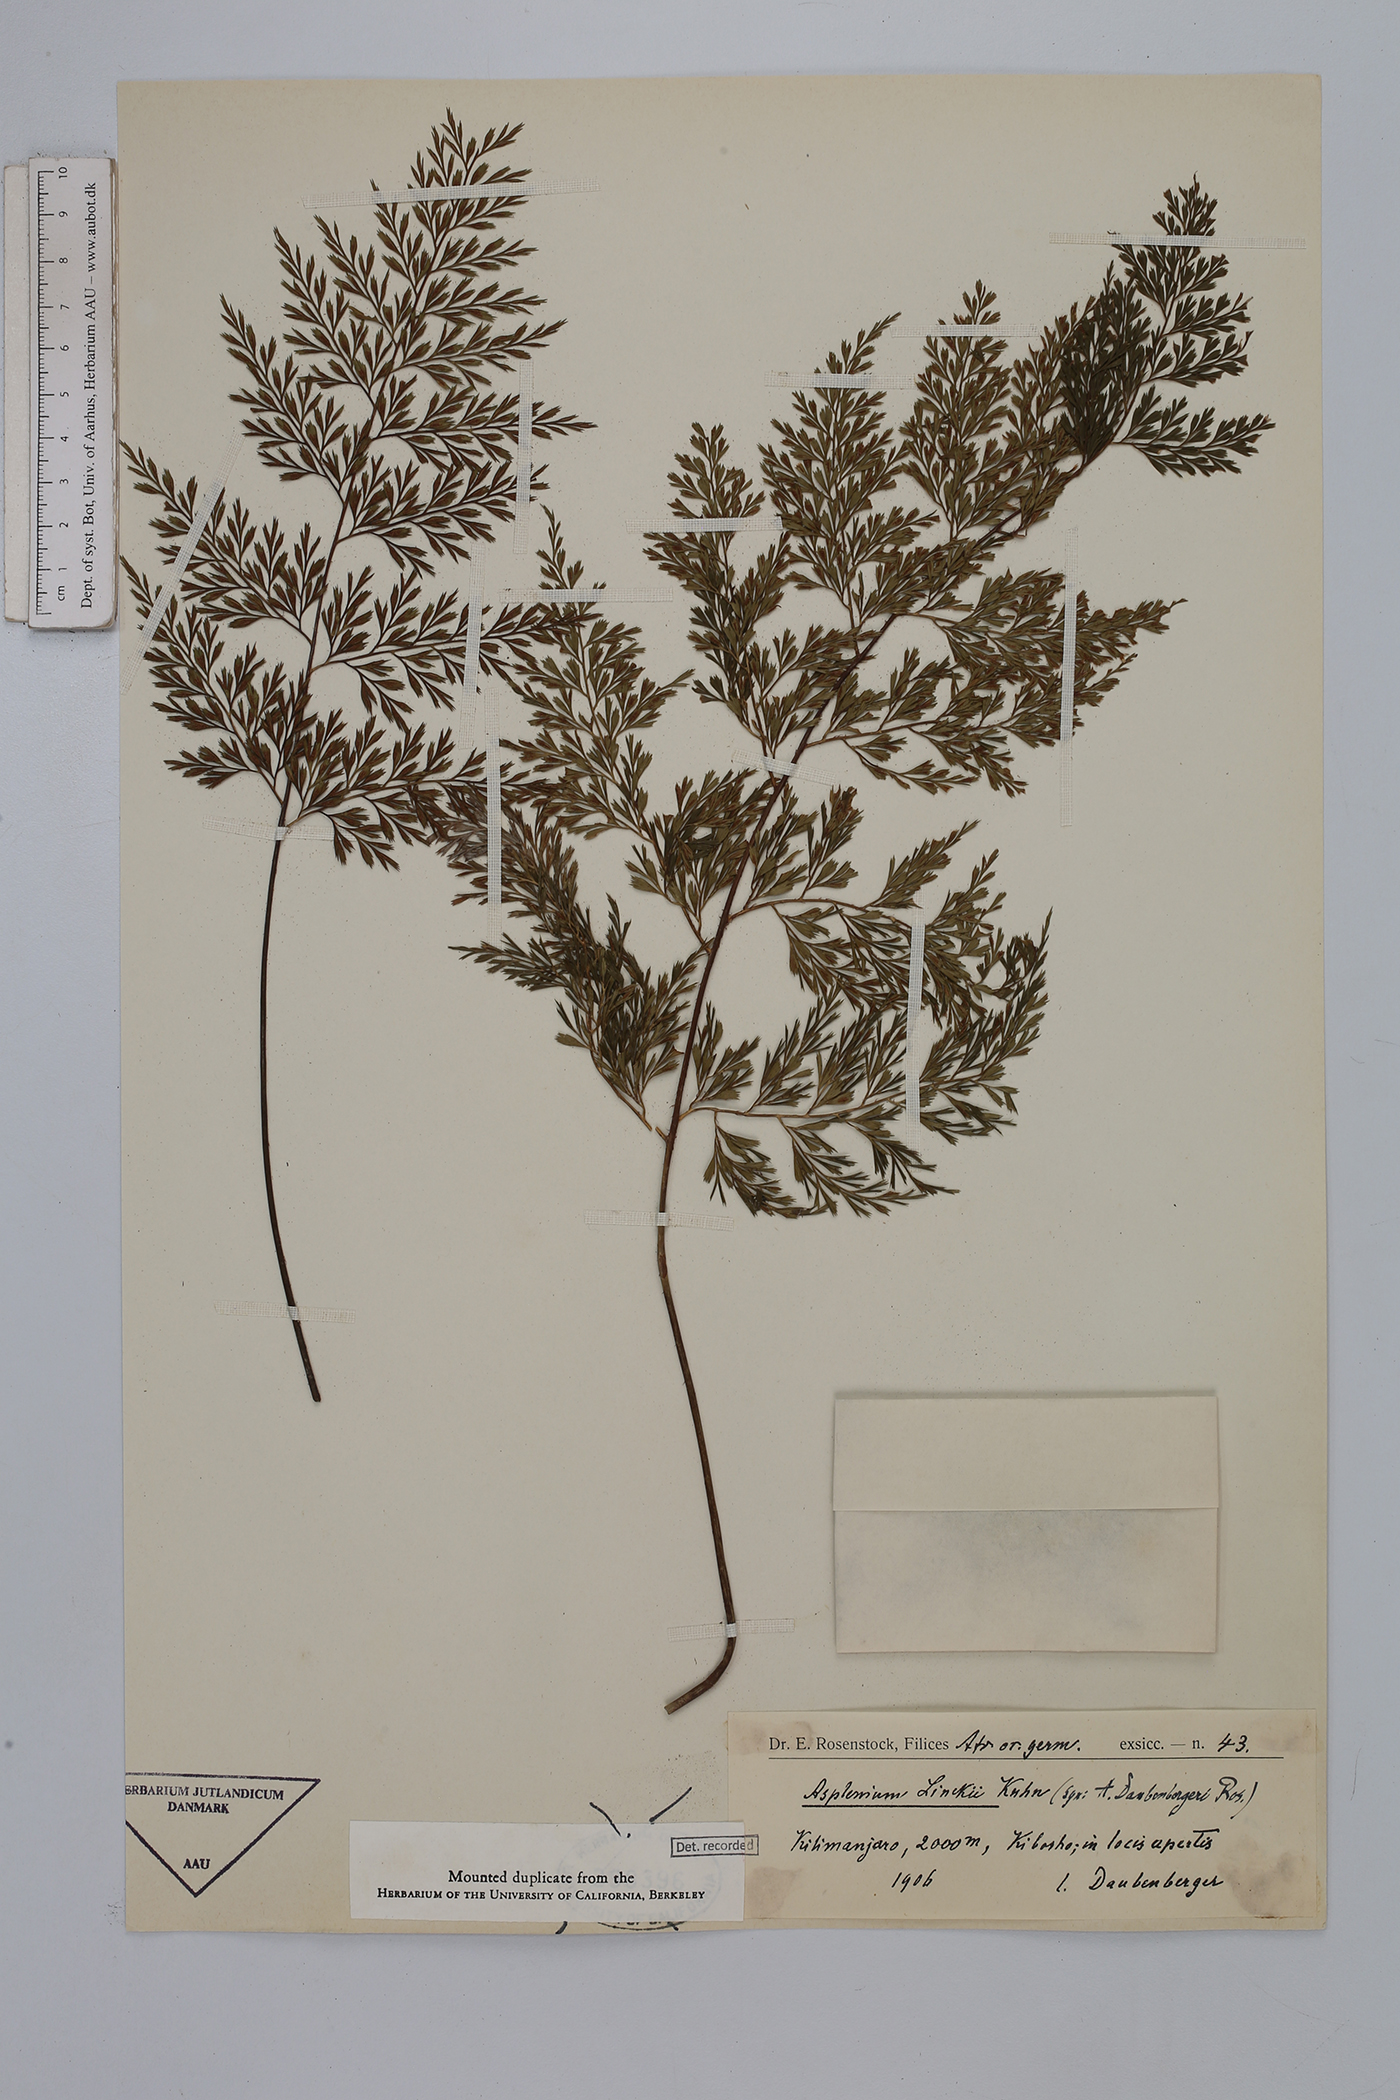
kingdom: Plantae
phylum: Tracheophyta
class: Polypodiopsida
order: Polypodiales
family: Aspleniaceae
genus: Asplenium
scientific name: Asplenium linckii
